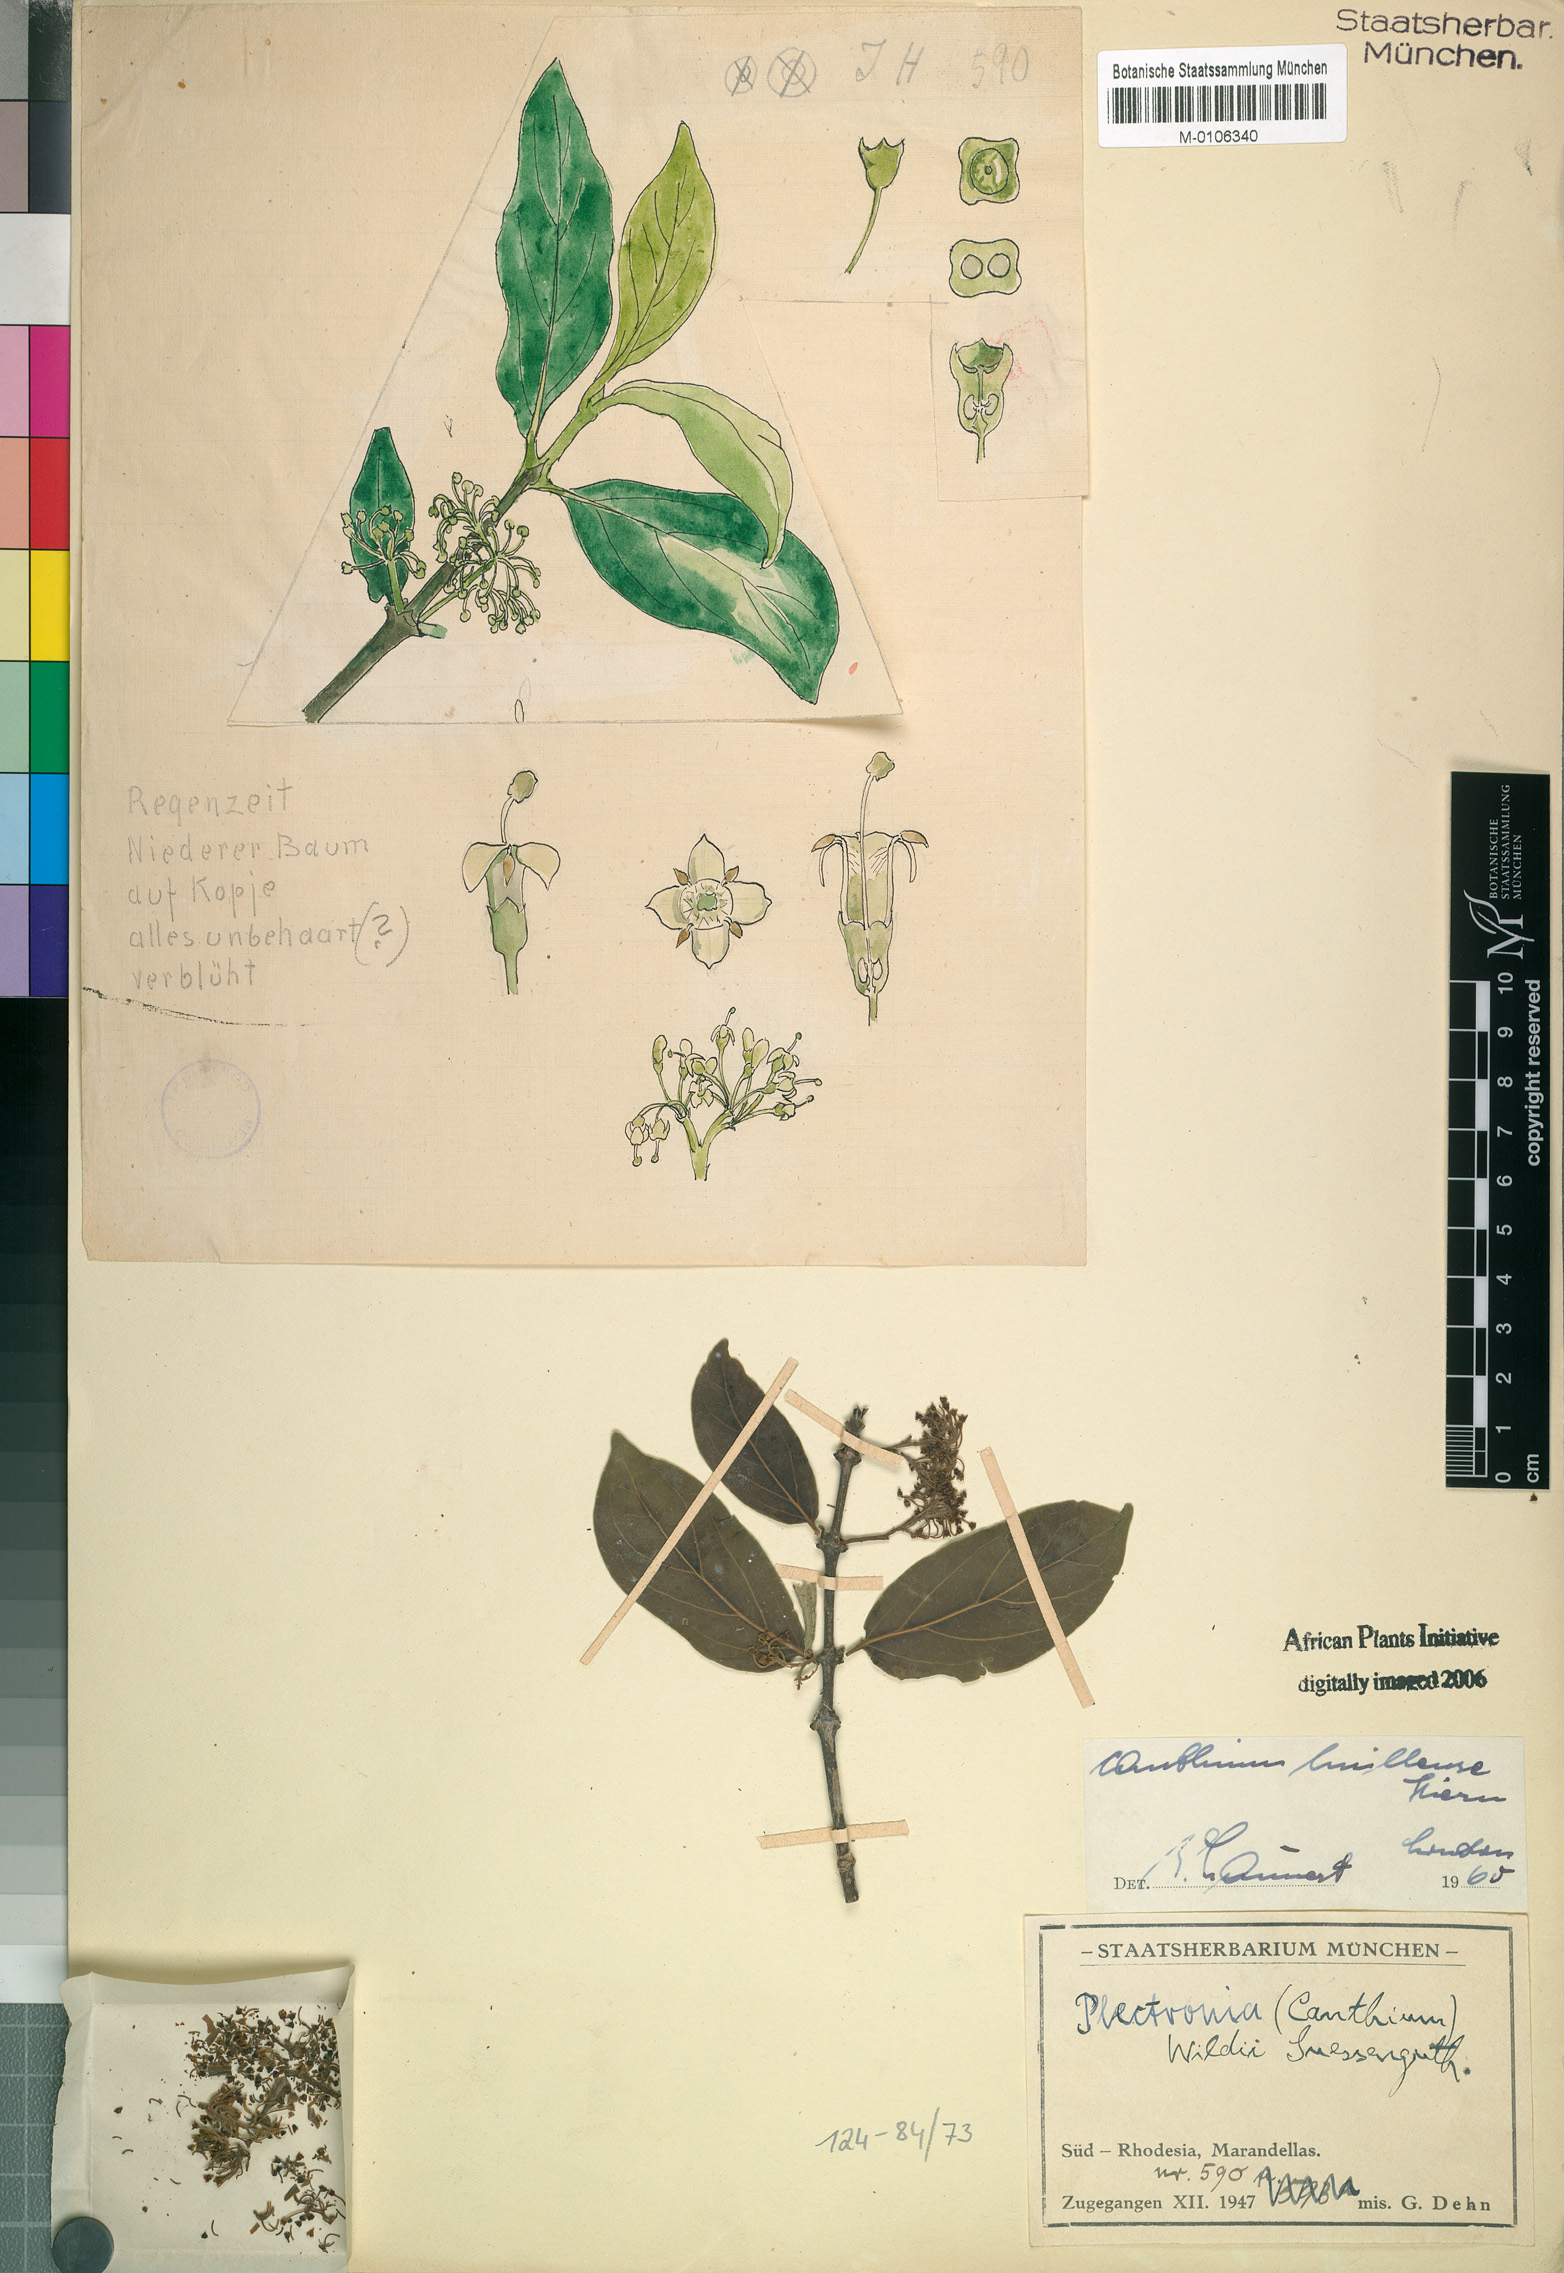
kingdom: Plantae
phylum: Tracheophyta
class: Magnoliopsida
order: Gentianales
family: Rubiaceae
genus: Psydrax
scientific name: Psydrax lividus
